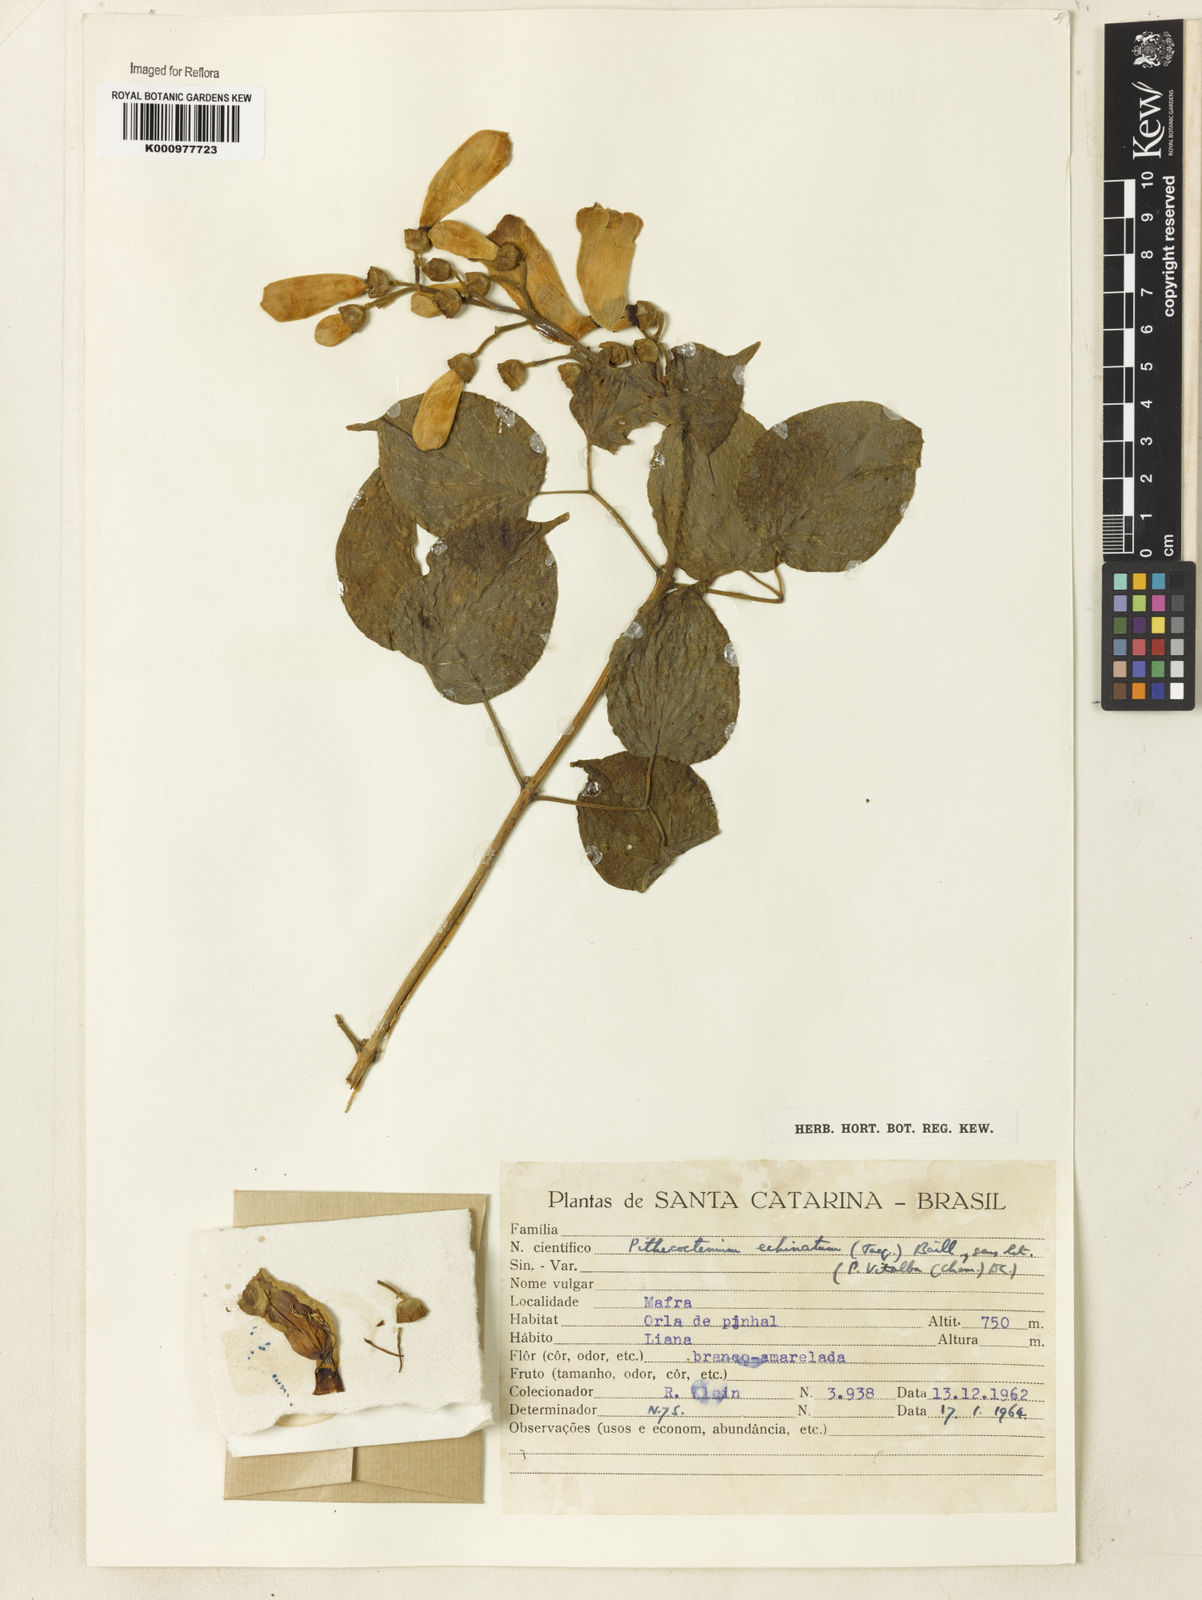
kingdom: Plantae
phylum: Tracheophyta
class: Magnoliopsida
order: Lamiales
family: Bignoniaceae
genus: Amphilophium
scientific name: Amphilophium crucigerum
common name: Monkey comb
